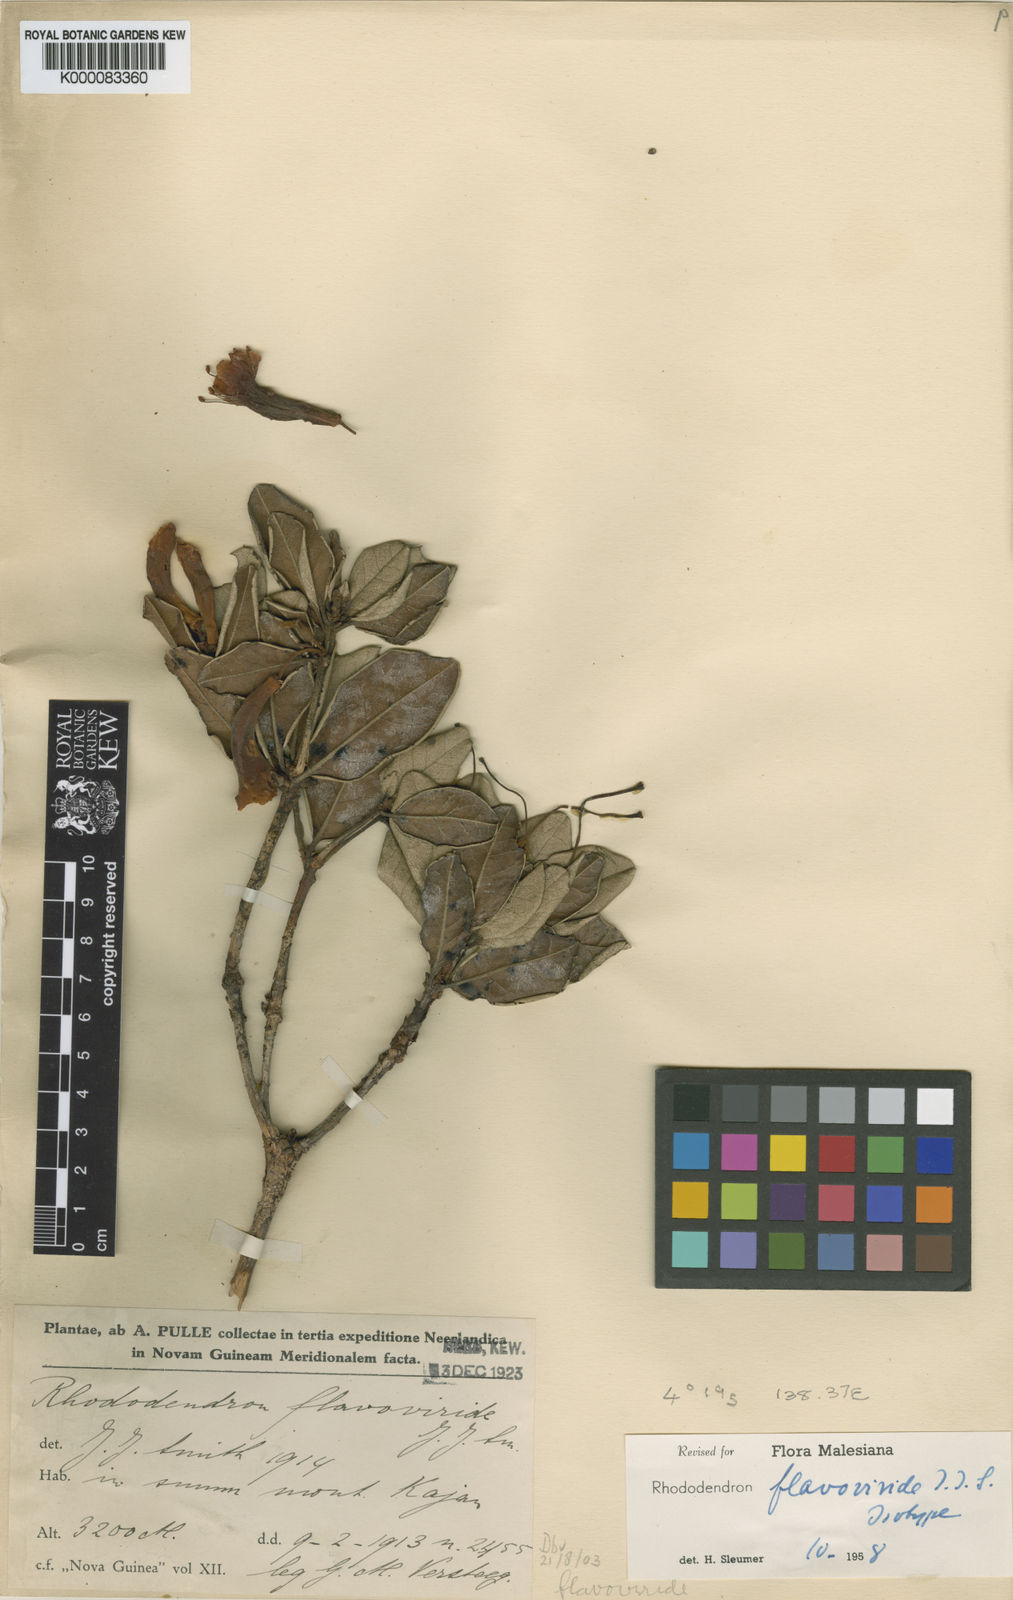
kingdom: Plantae
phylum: Tracheophyta
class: Magnoliopsida
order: Ericales
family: Ericaceae
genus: Rhododendron
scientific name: Rhododendron flavoviride
